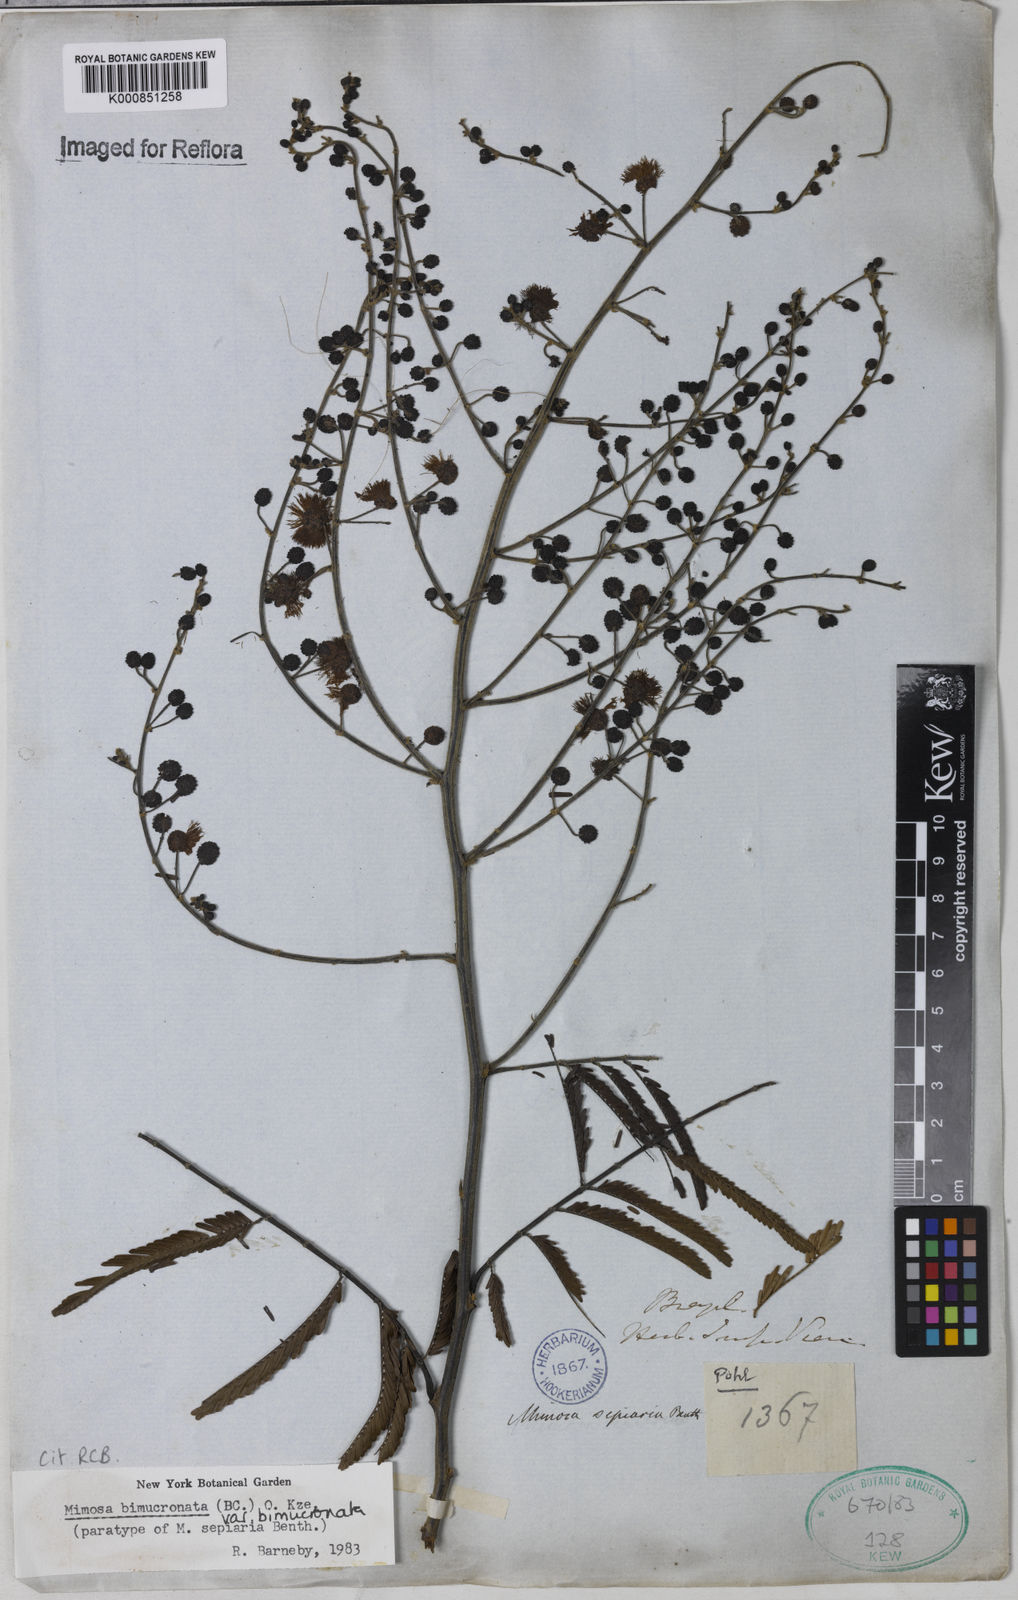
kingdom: Plantae
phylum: Tracheophyta
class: Magnoliopsida
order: Fabales
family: Fabaceae
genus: Mimosa
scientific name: Mimosa bimucronata
